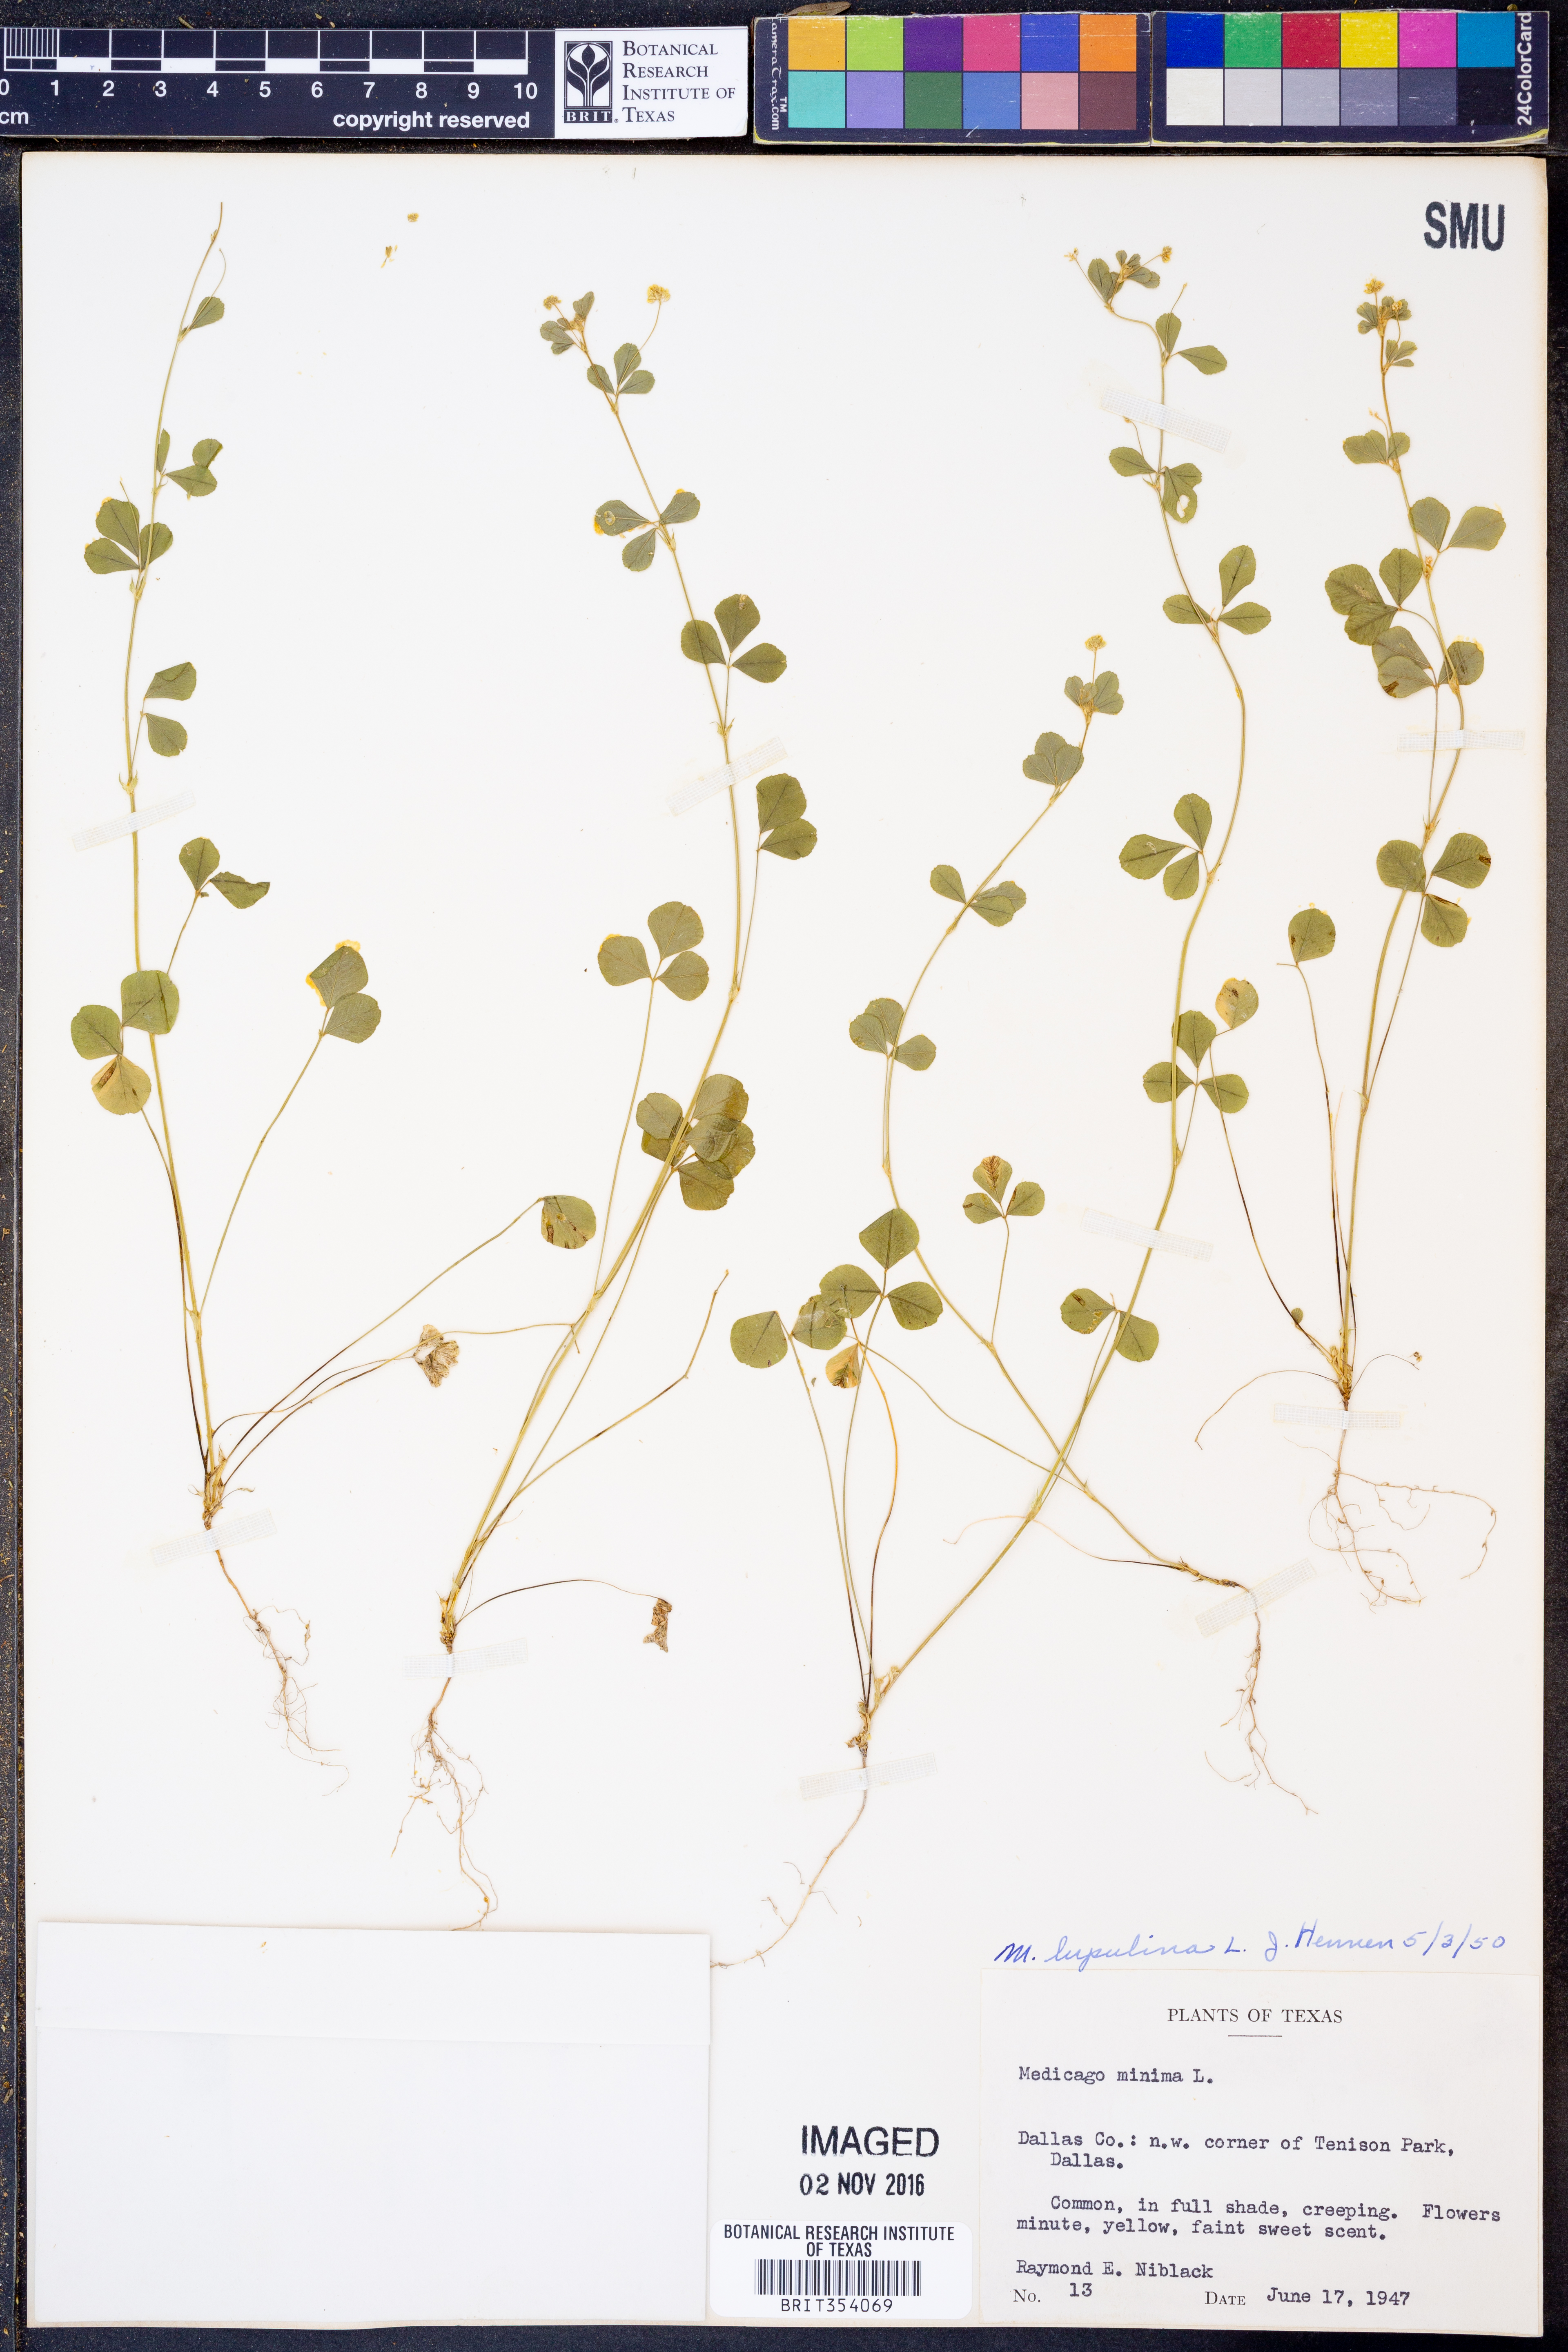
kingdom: Plantae
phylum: Tracheophyta
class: Magnoliopsida
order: Fabales
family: Fabaceae
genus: Medicago
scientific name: Medicago lupulina
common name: Black medick
